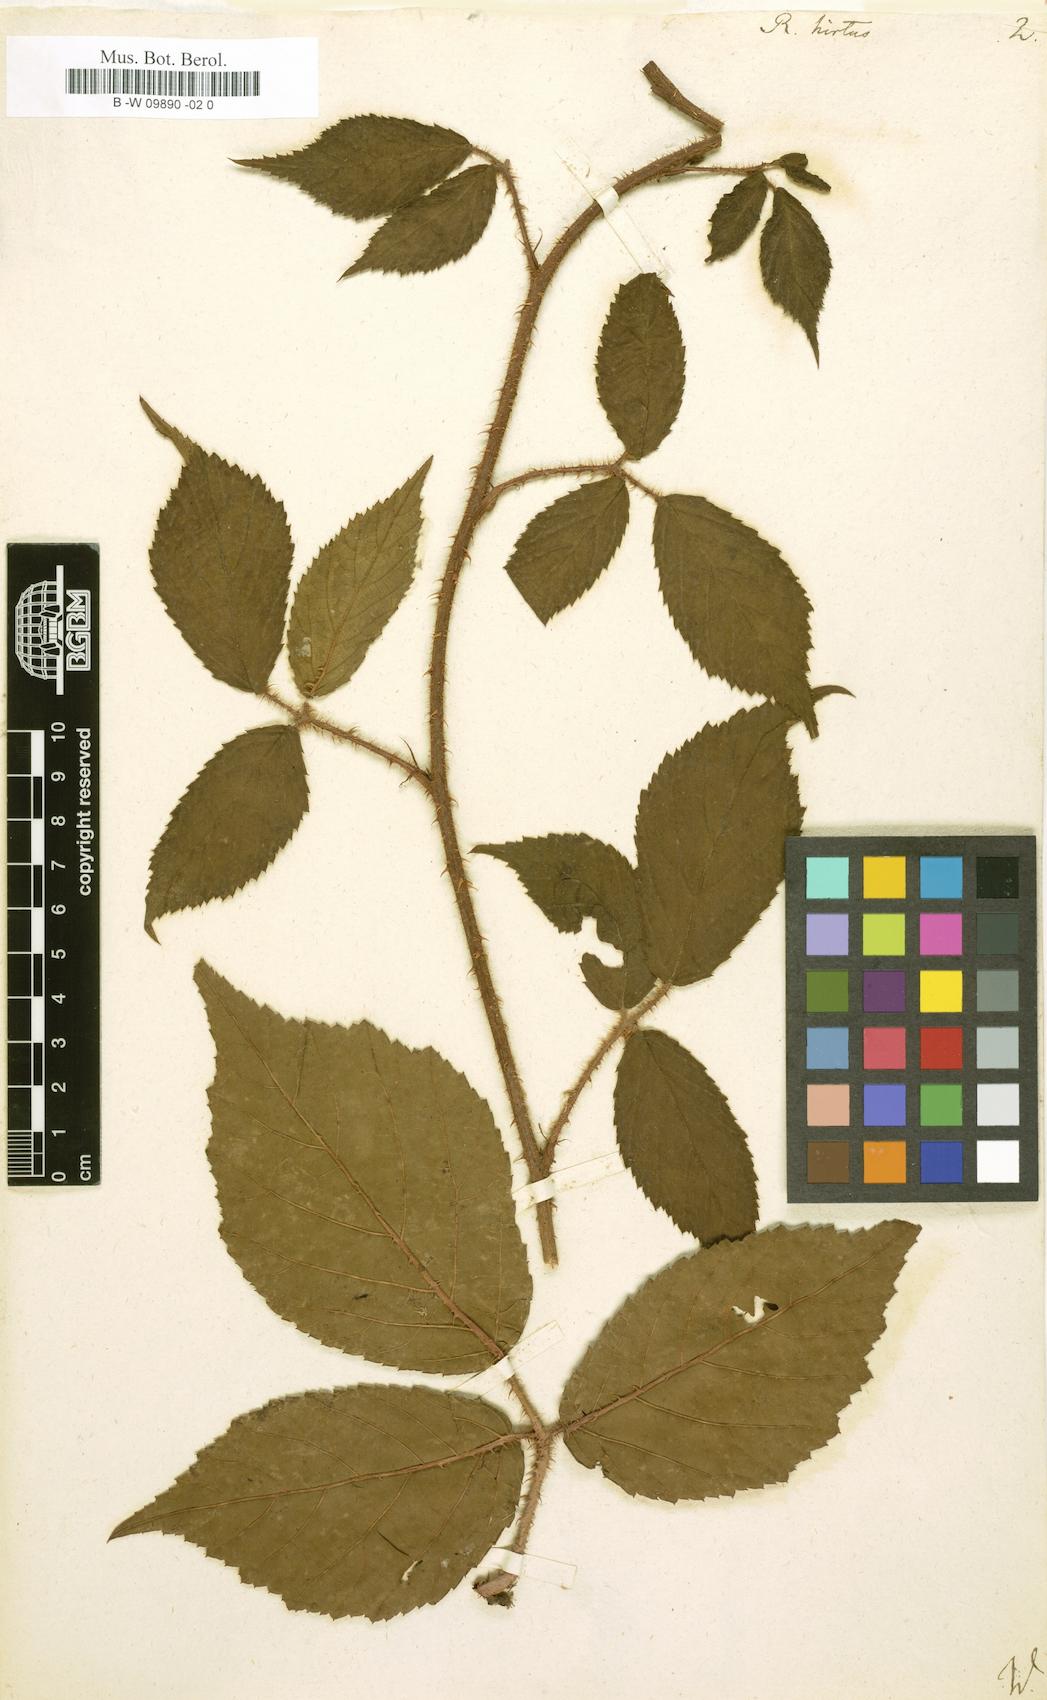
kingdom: Plantae
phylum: Tracheophyta
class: Magnoliopsida
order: Rosales
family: Rosaceae
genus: Rubus
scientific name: Rubus hirtus
